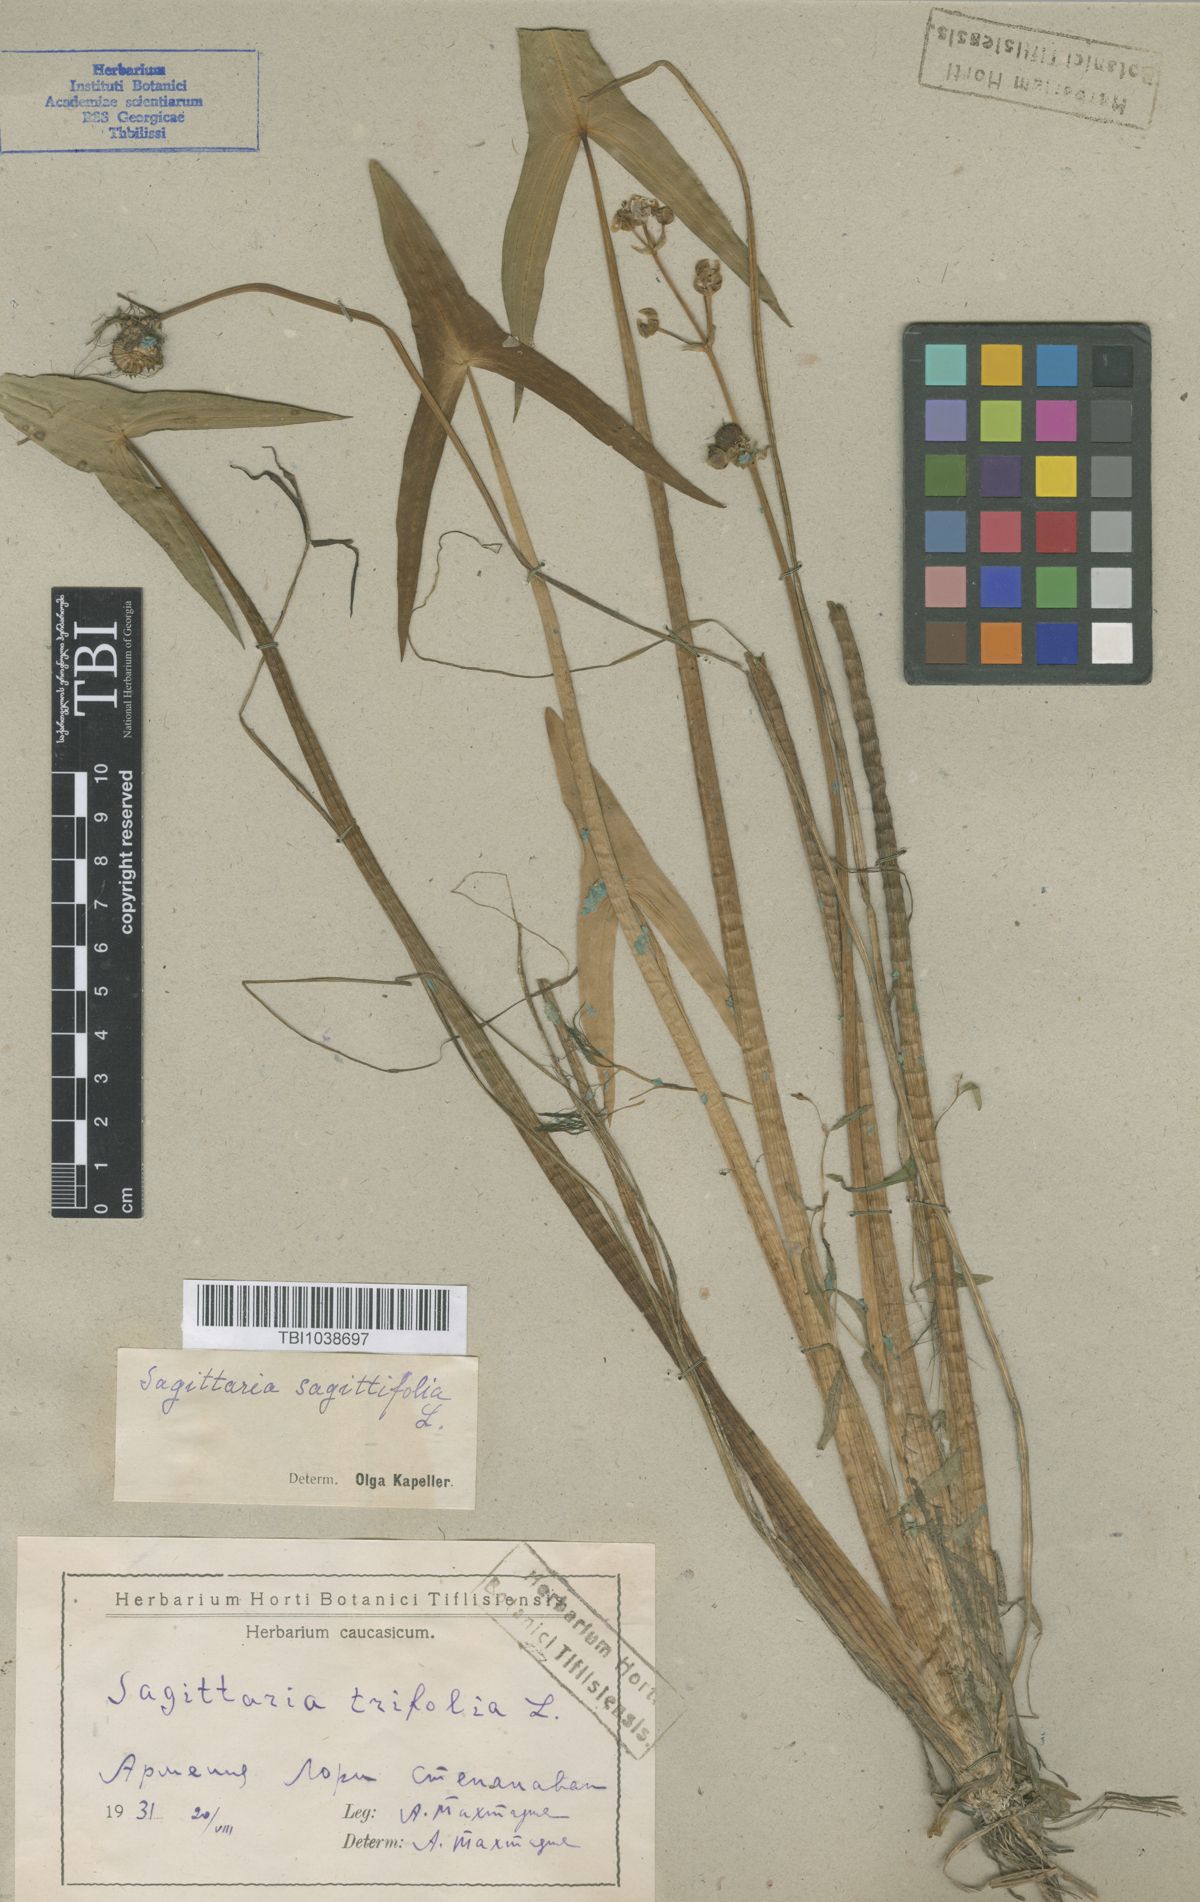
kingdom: Plantae
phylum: Tracheophyta
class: Liliopsida
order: Alismatales
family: Alismataceae
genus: Sagittaria
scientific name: Sagittaria sagittifolia
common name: Arrowhead
